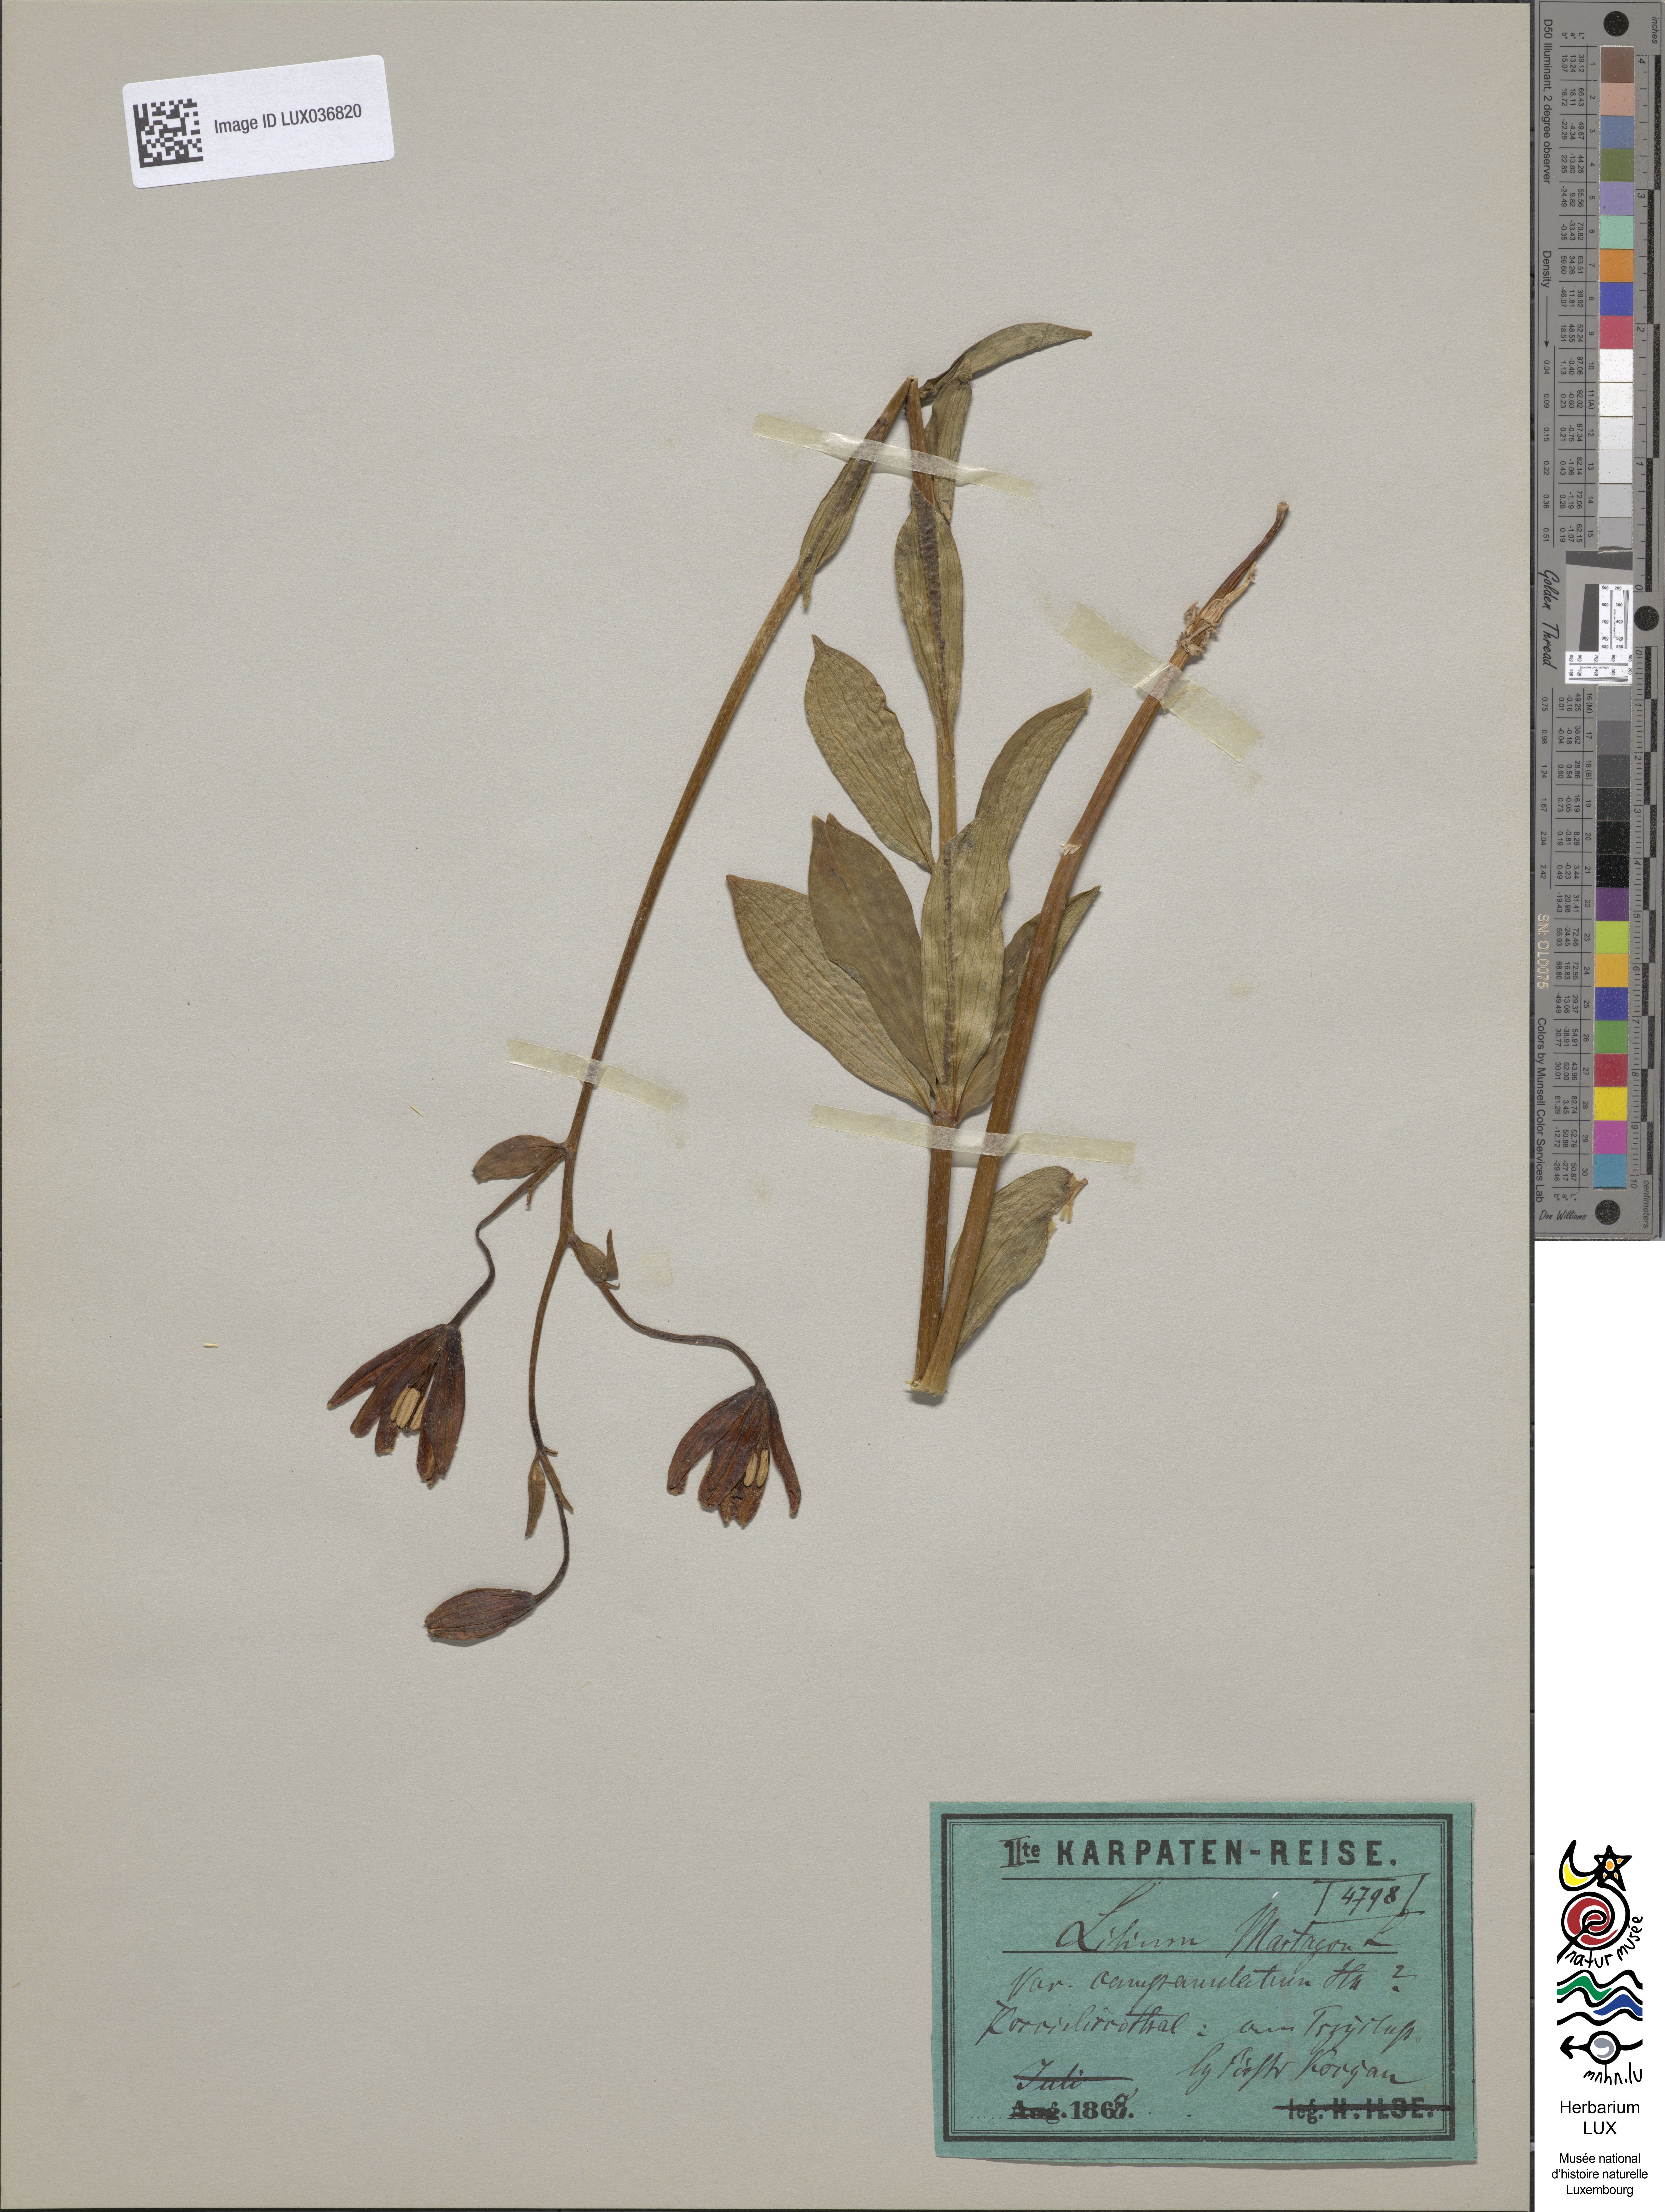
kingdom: Plantae
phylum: Tracheophyta
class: Liliopsida
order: Liliales
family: Liliaceae
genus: Lilium
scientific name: Lilium martagon
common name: Martagon lily
